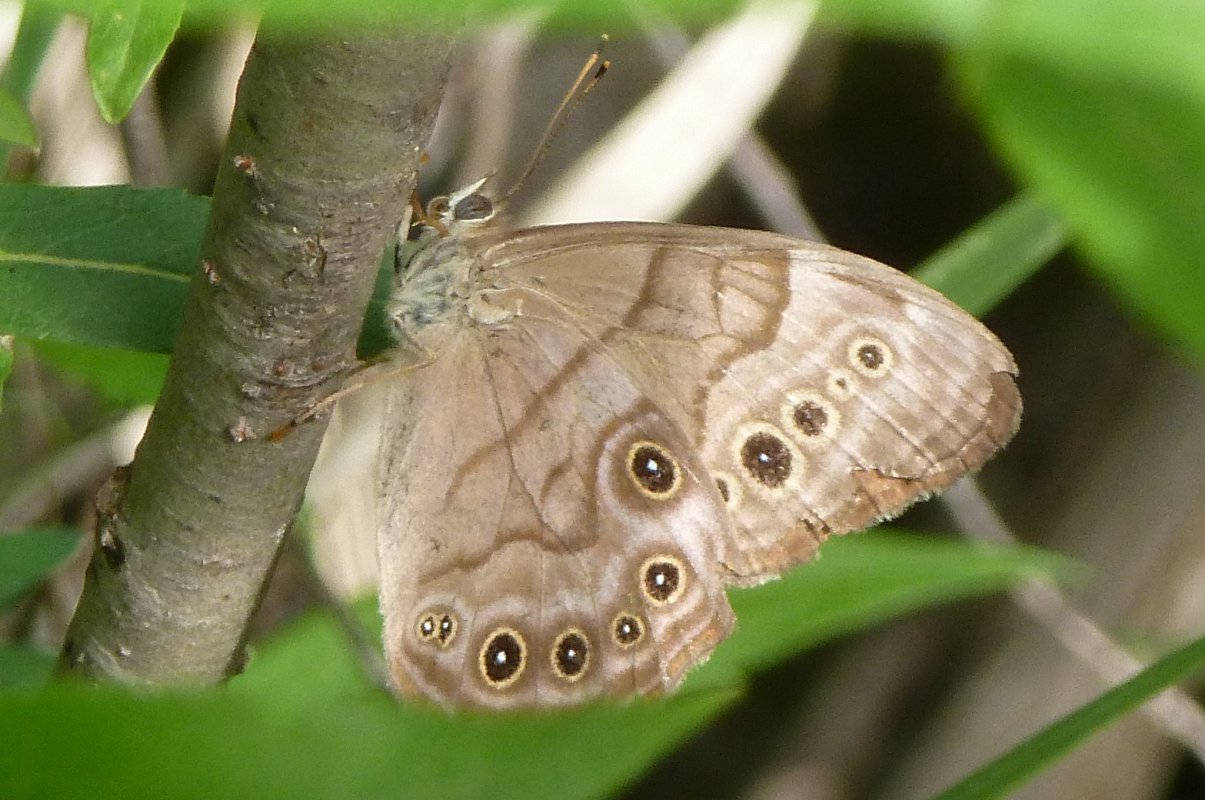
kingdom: Animalia
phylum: Arthropoda
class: Insecta
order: Lepidoptera
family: Nymphalidae
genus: Lethe
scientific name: Lethe anthedon
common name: Northern Pearly-Eye
